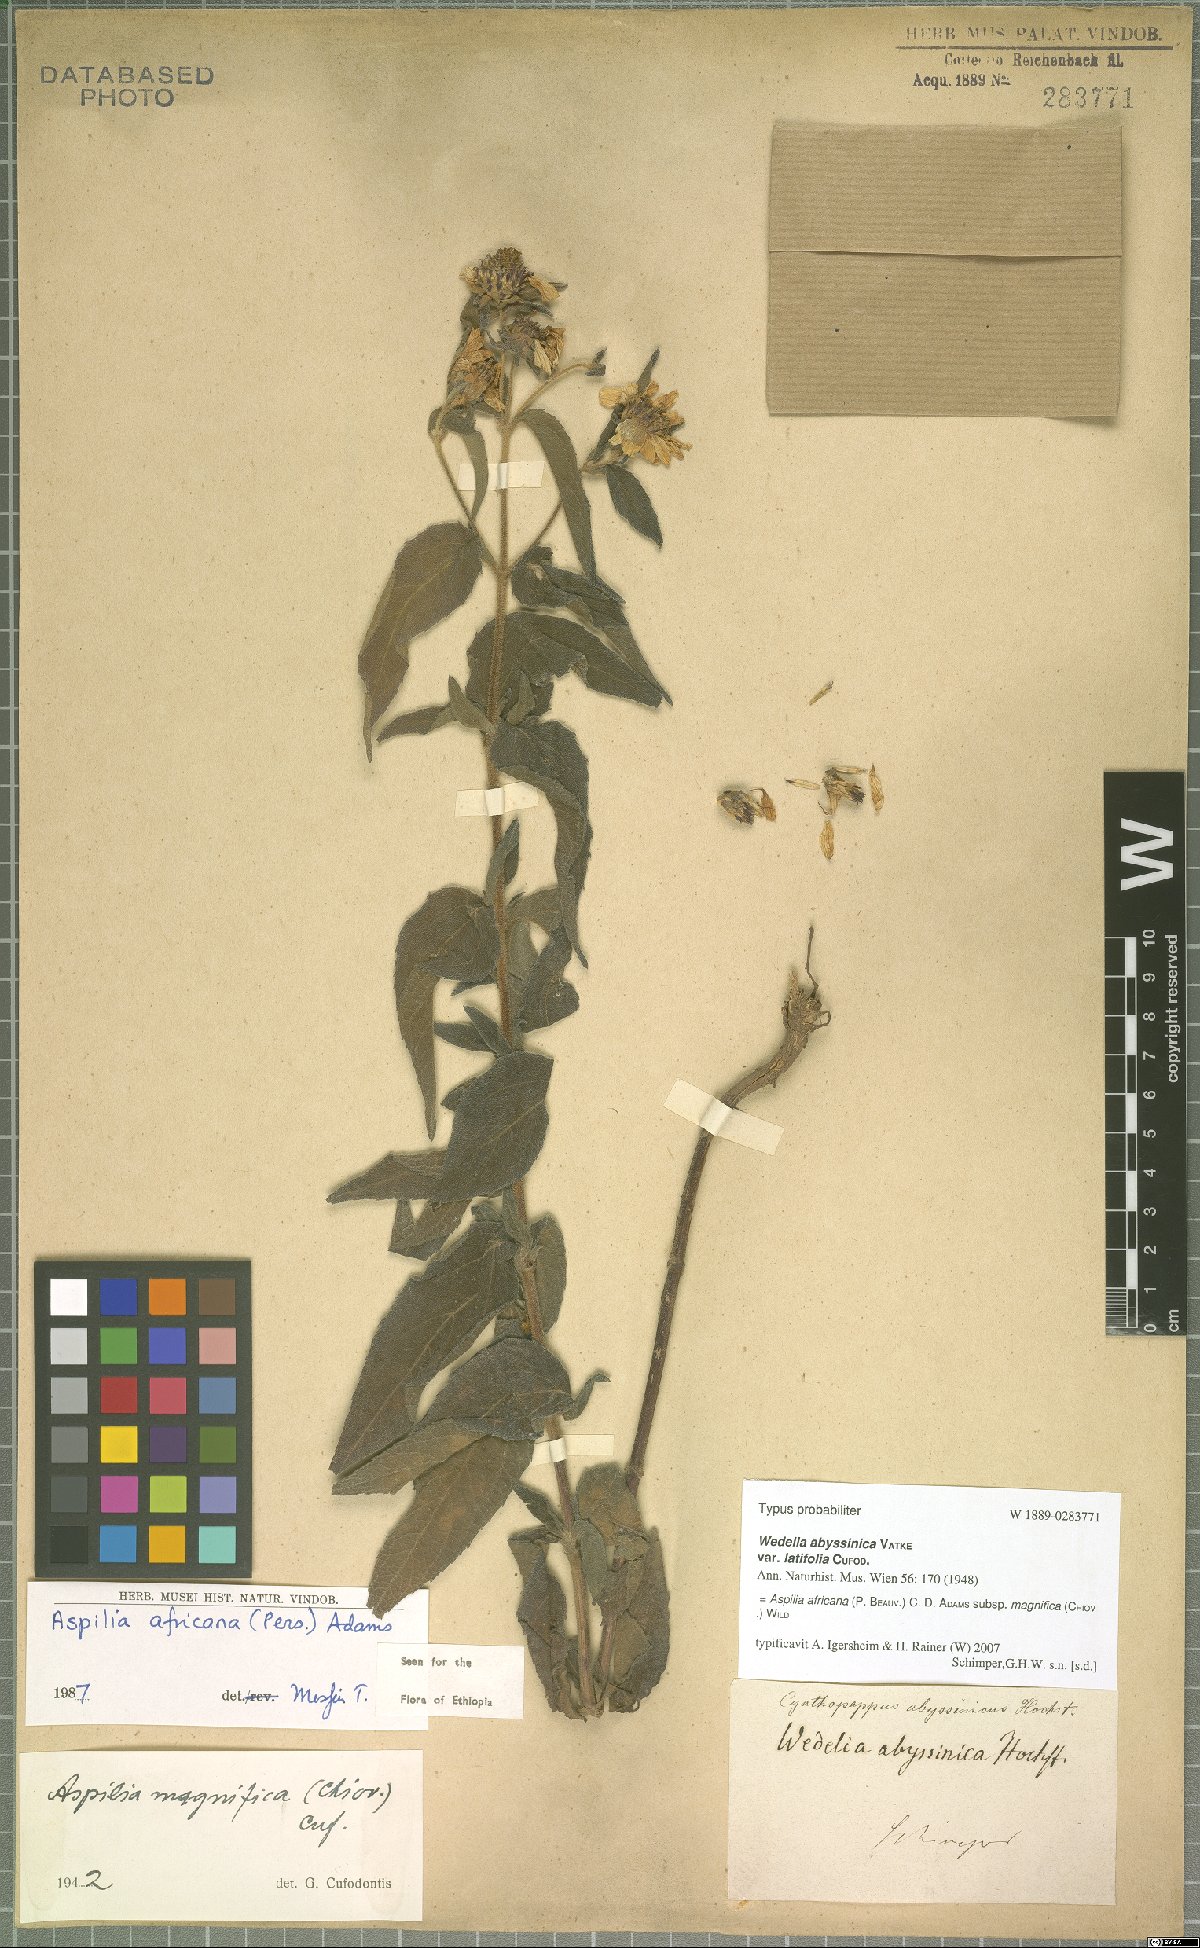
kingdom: Plantae
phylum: Tracheophyta
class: Magnoliopsida
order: Asterales
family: Asteraceae
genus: Aspilia
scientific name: Aspilia africana
